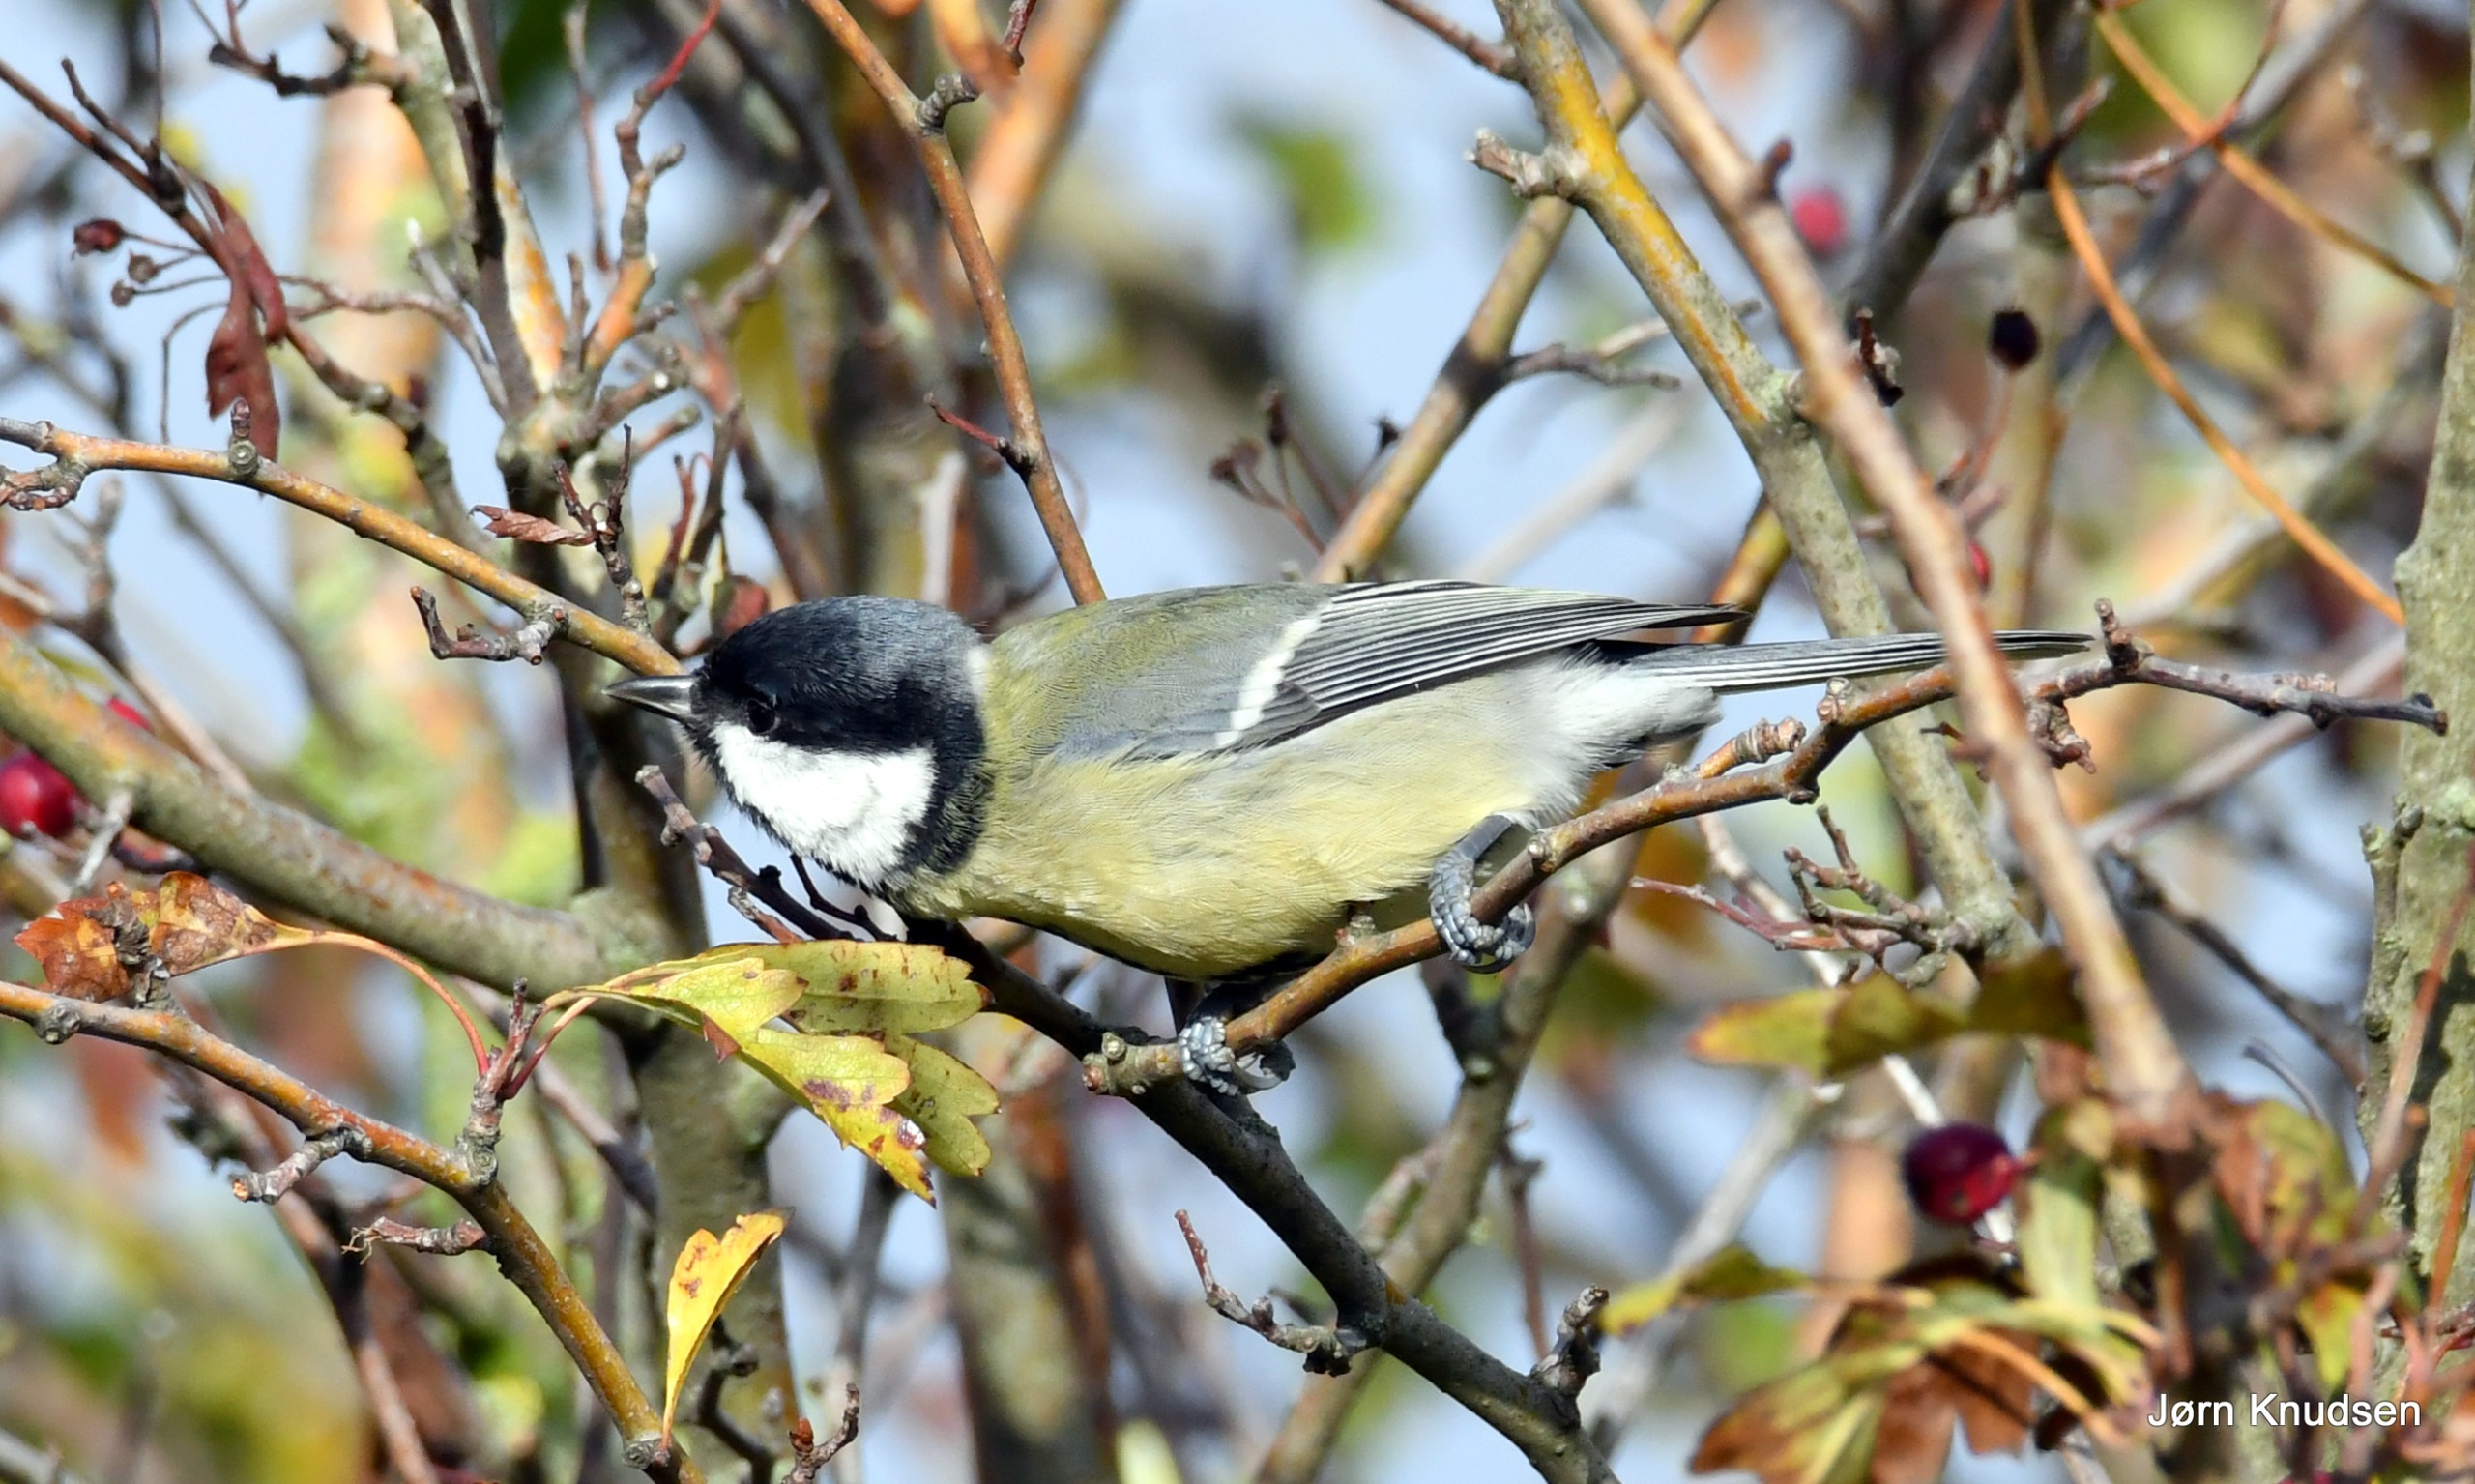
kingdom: Animalia
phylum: Chordata
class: Aves
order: Passeriformes
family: Paridae
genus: Parus
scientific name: Parus major
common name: Musvit
